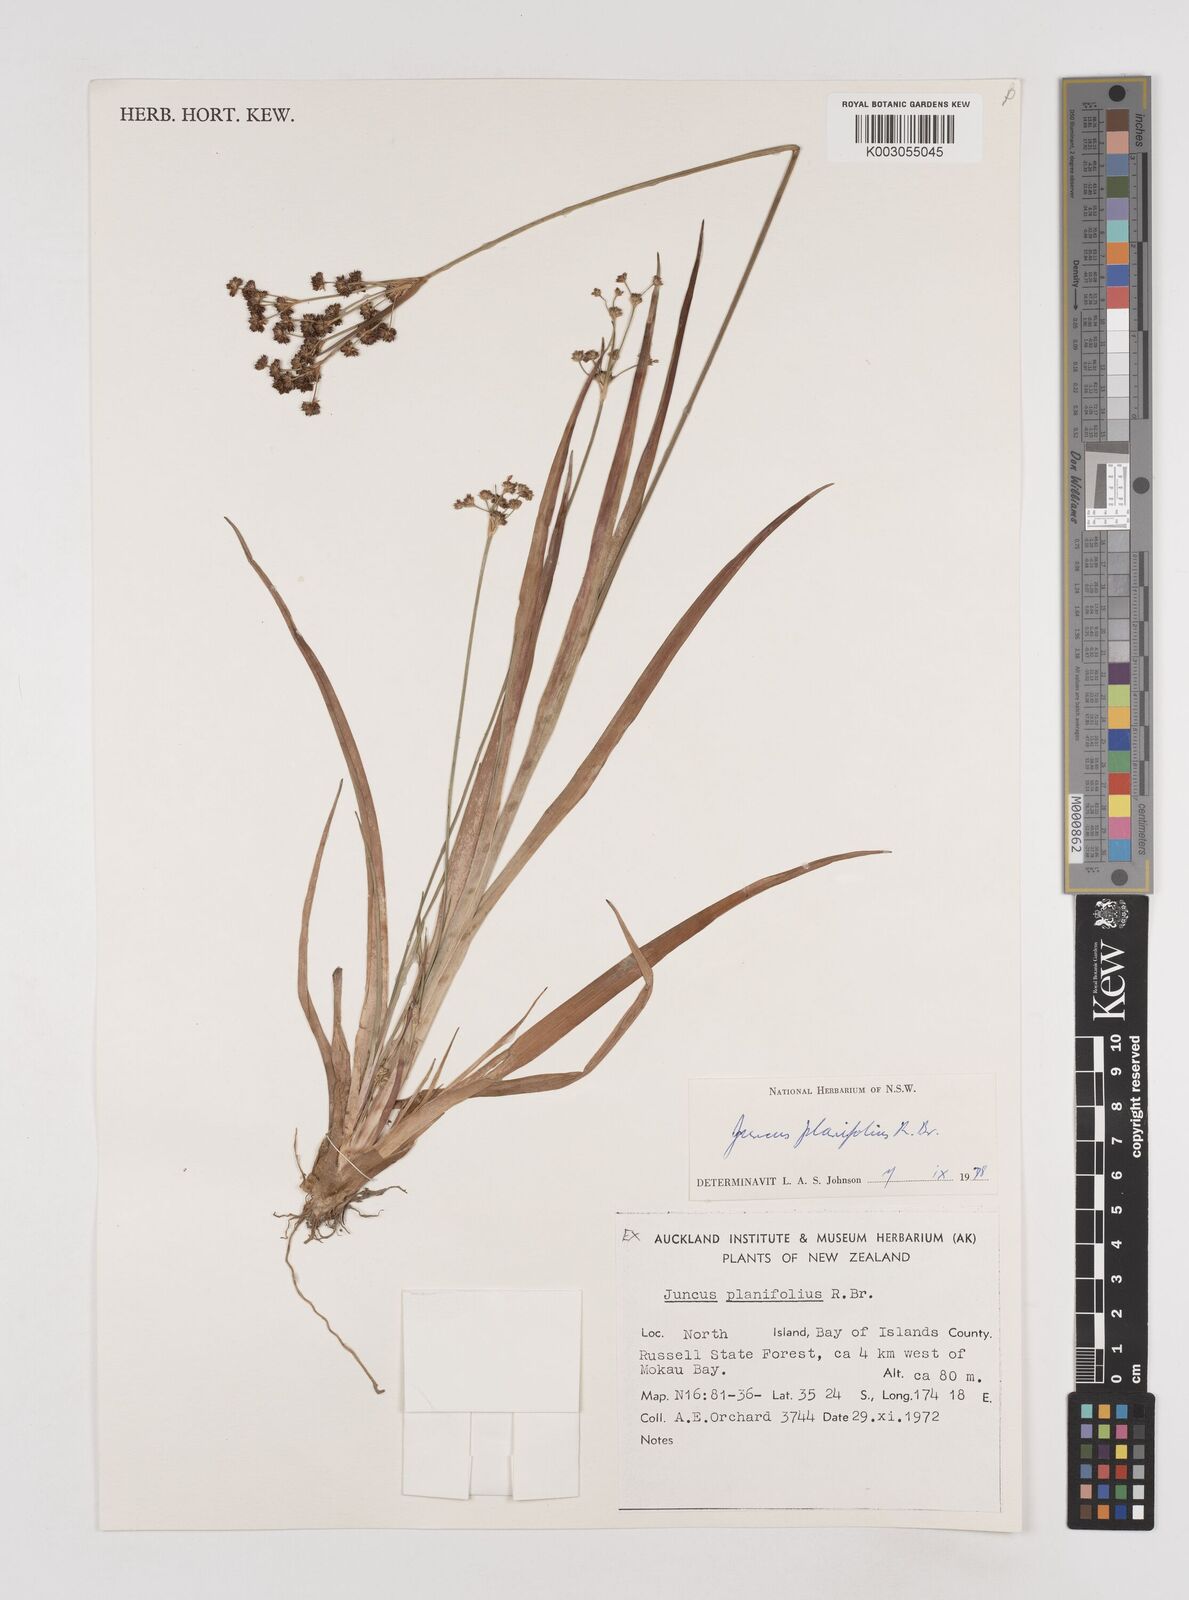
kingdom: Plantae
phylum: Tracheophyta
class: Liliopsida
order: Poales
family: Juncaceae
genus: Juncus
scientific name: Juncus planifolius
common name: Broadleaf rush
